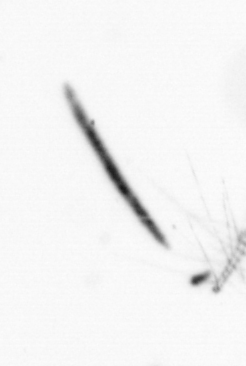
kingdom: Bacteria
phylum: Cyanobacteria
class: Cyanobacteriia
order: Cyanobacteriales
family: Microcoleaceae
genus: Trichodesmium
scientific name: Trichodesmium
